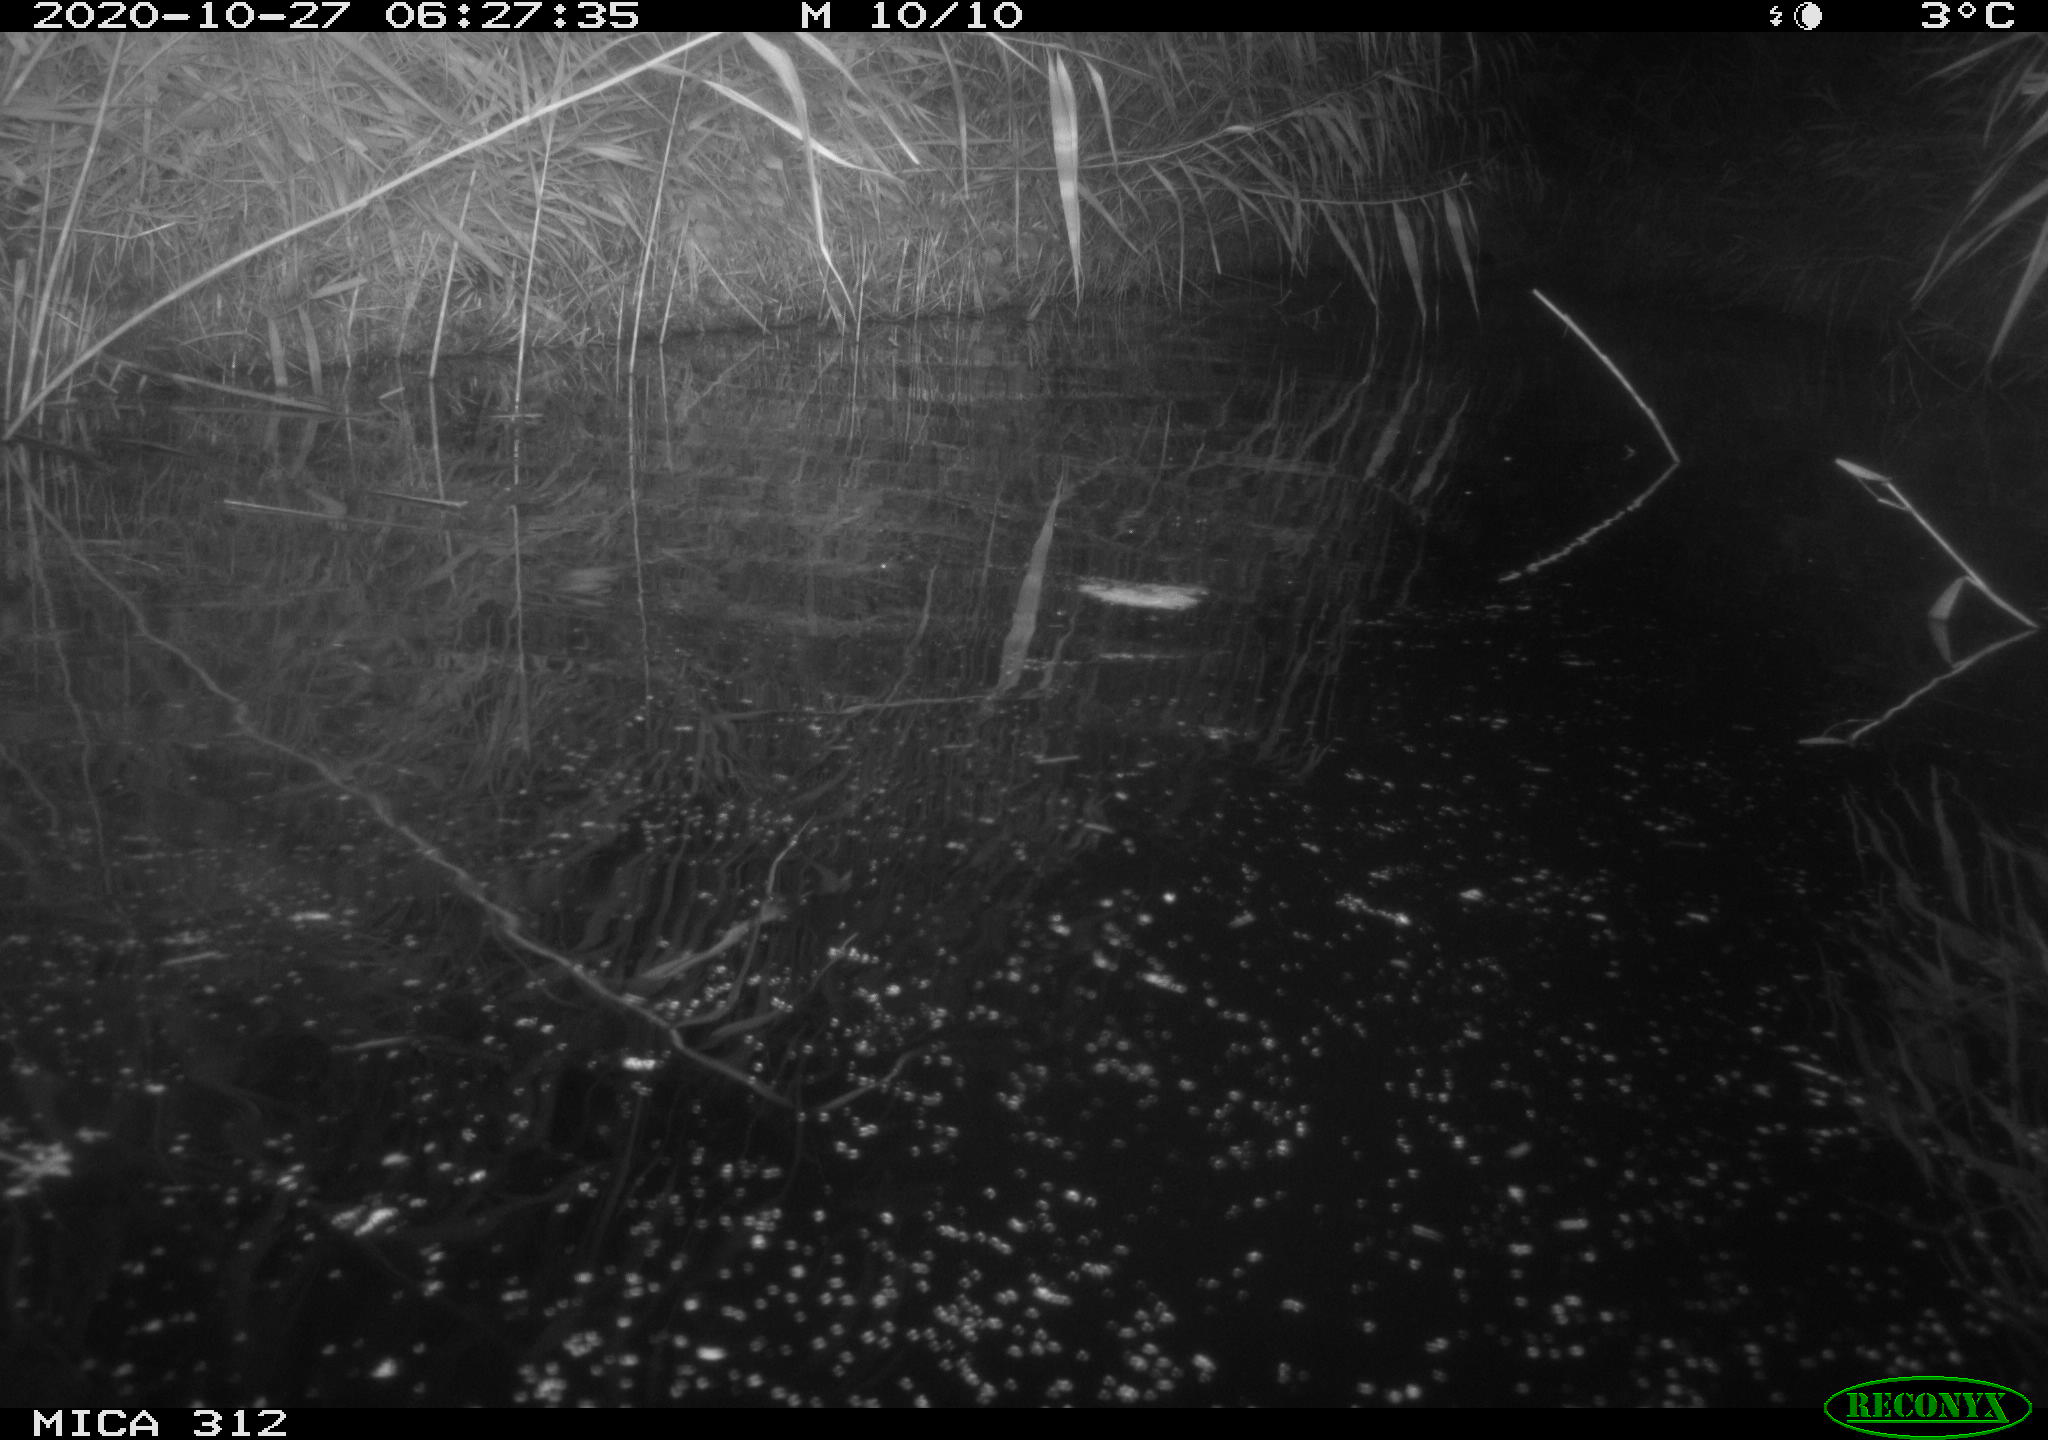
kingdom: Animalia
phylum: Chordata
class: Mammalia
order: Rodentia
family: Muridae
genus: Rattus
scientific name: Rattus norvegicus
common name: Brown rat
